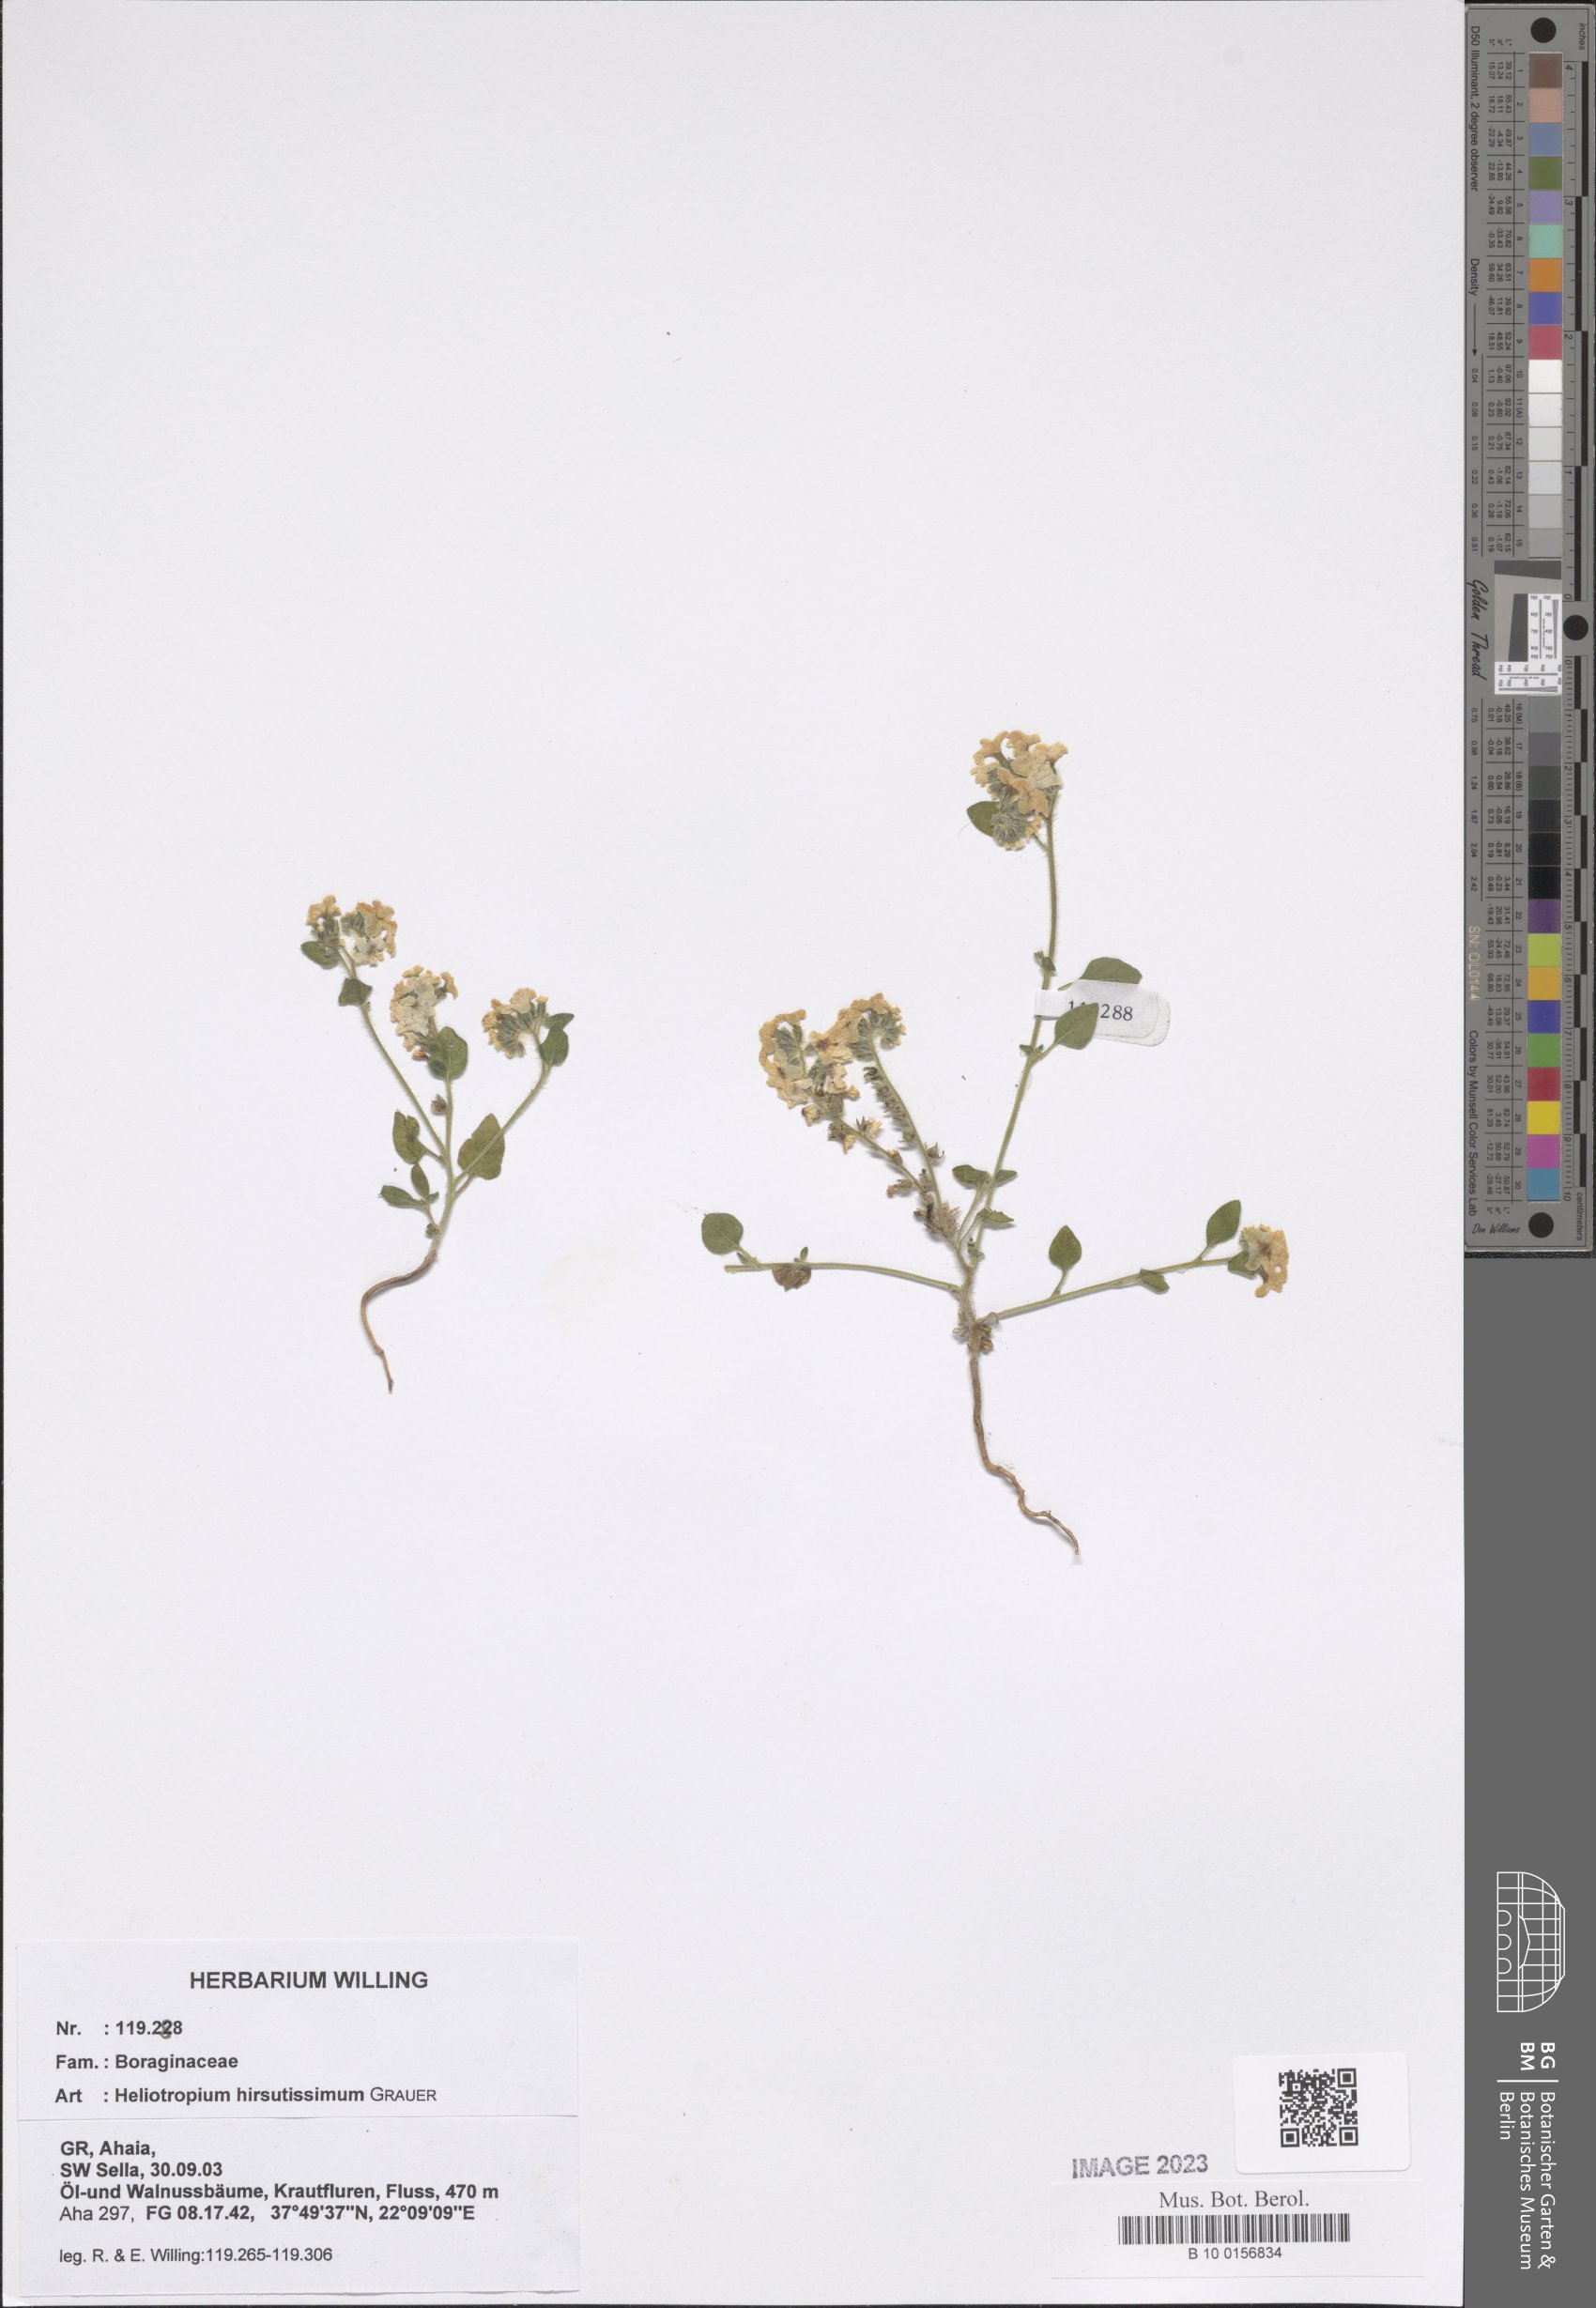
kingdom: Plantae
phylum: Tracheophyta
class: Magnoliopsida
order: Boraginales
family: Heliotropiaceae
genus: Heliotropium
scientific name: Heliotropium hirsutissimum
